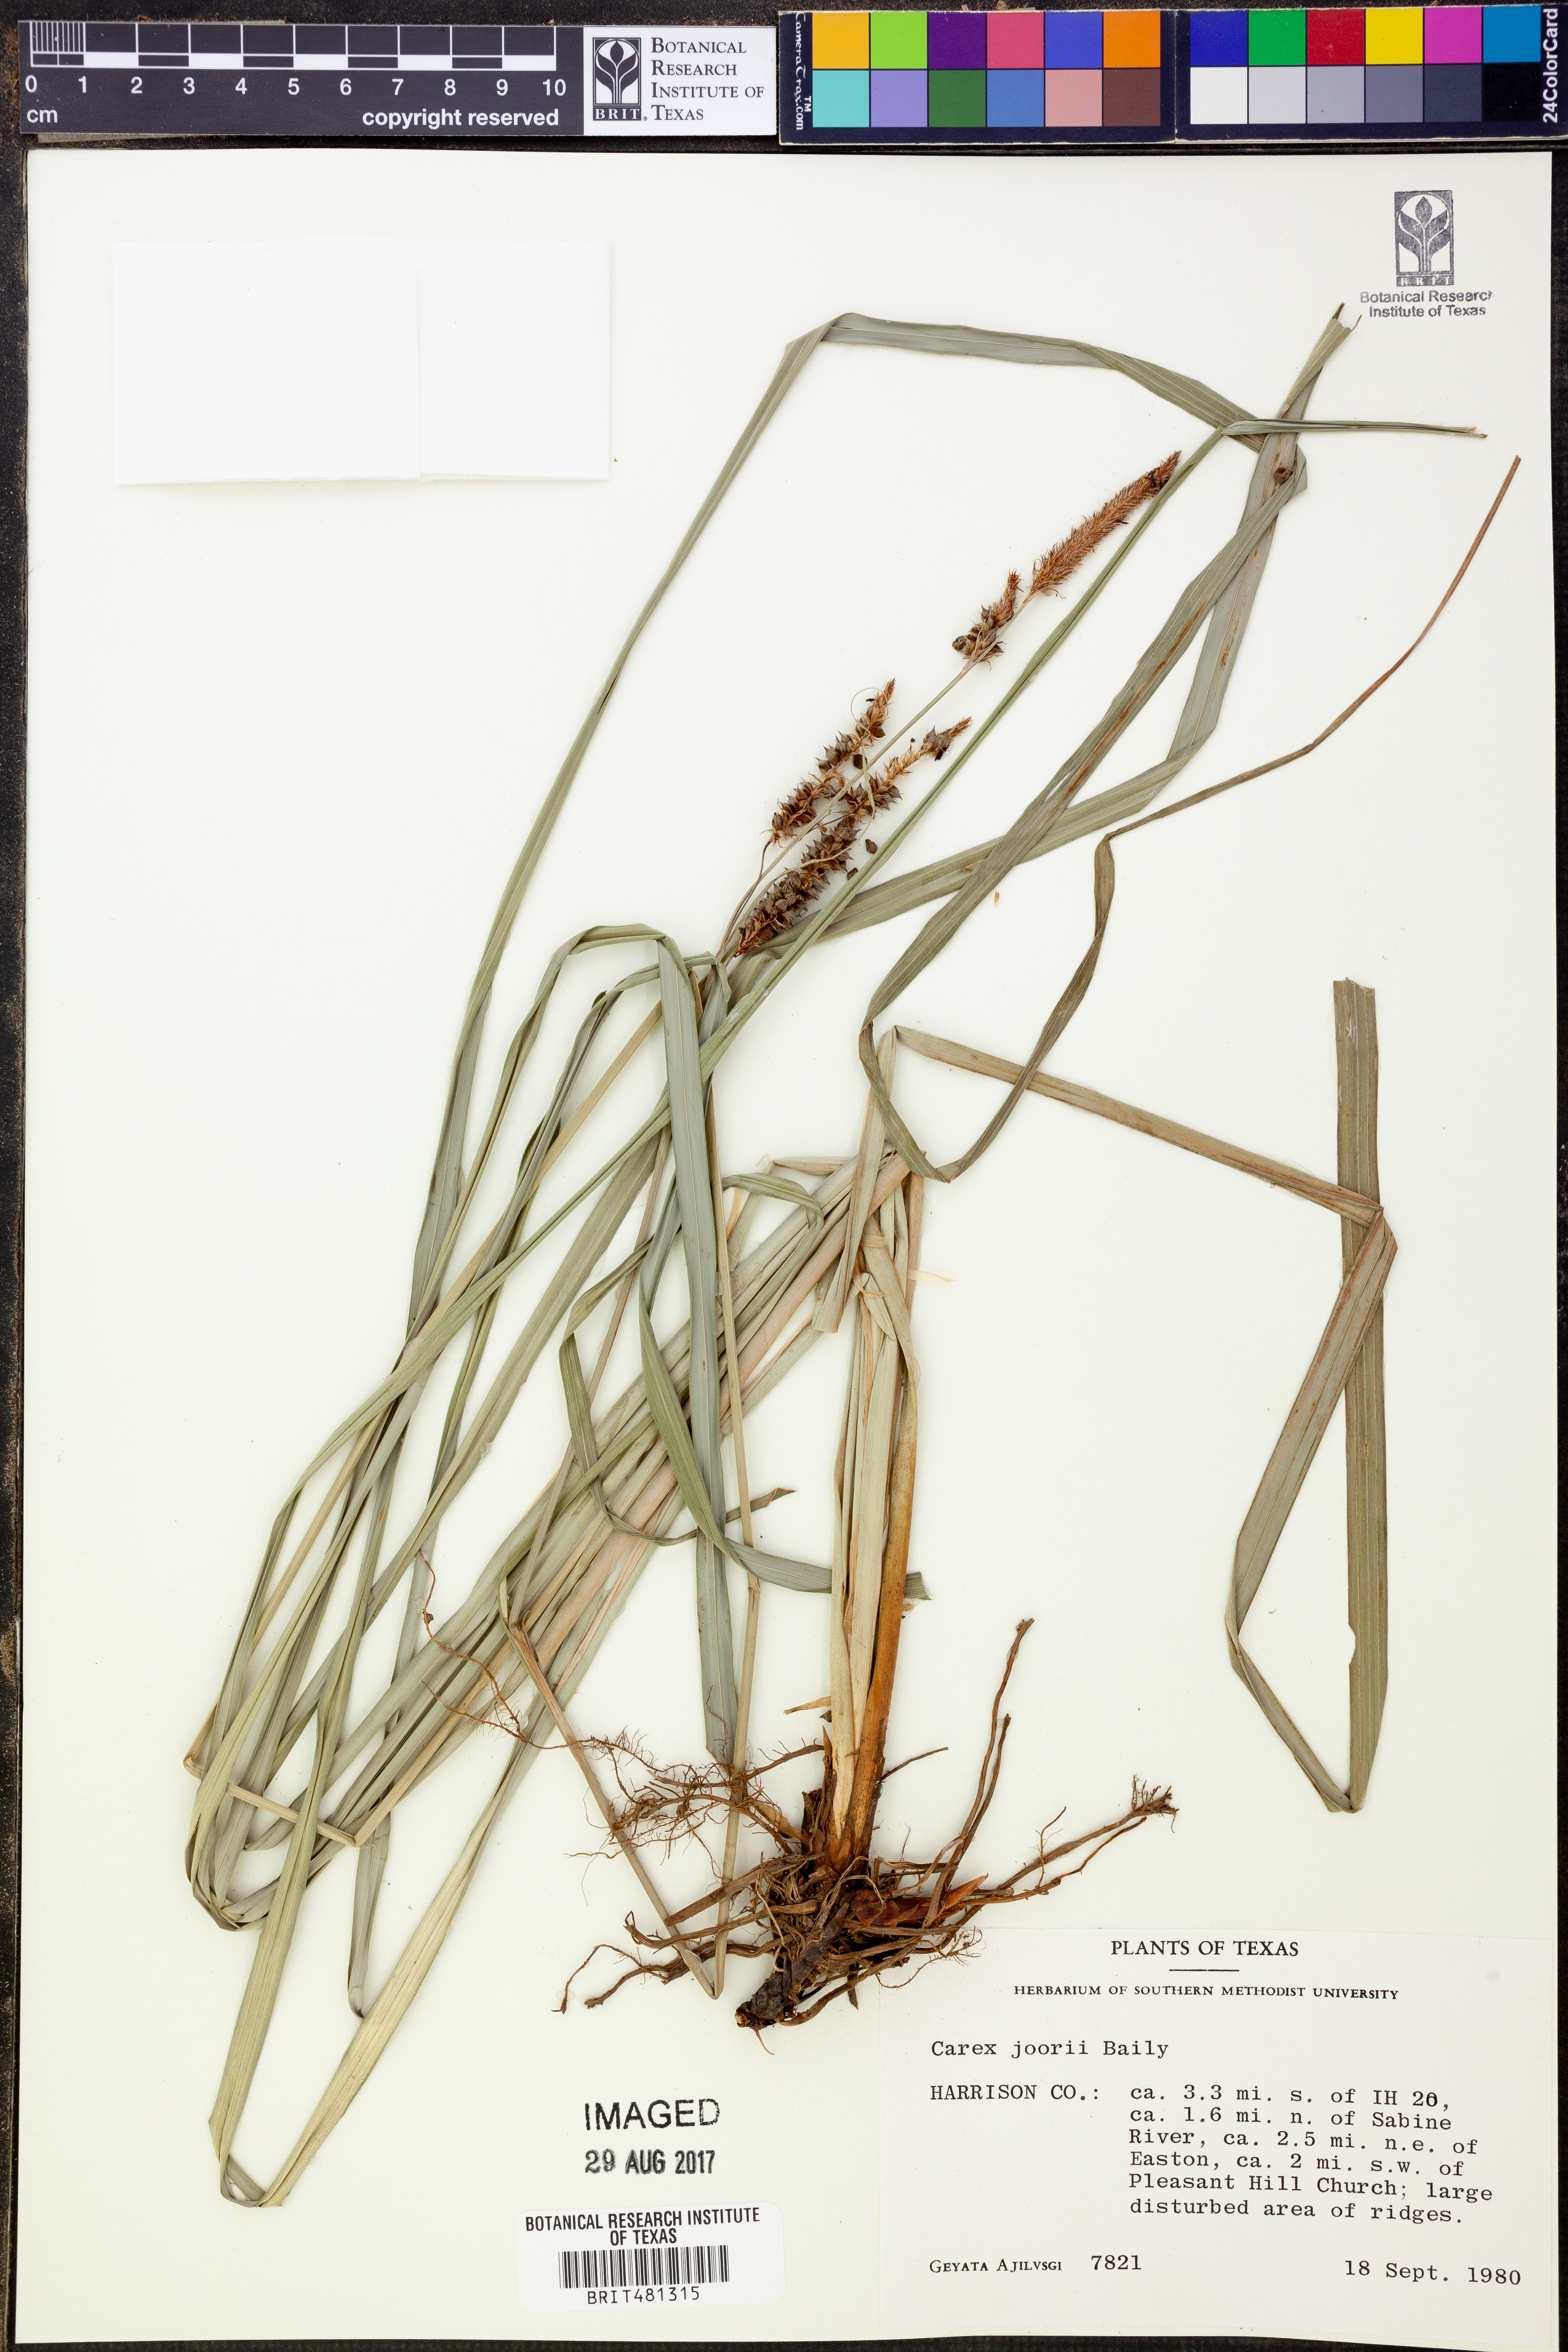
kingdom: Plantae
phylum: Tracheophyta
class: Liliopsida
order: Poales
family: Cyperaceae
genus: Carex
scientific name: Carex joorii
